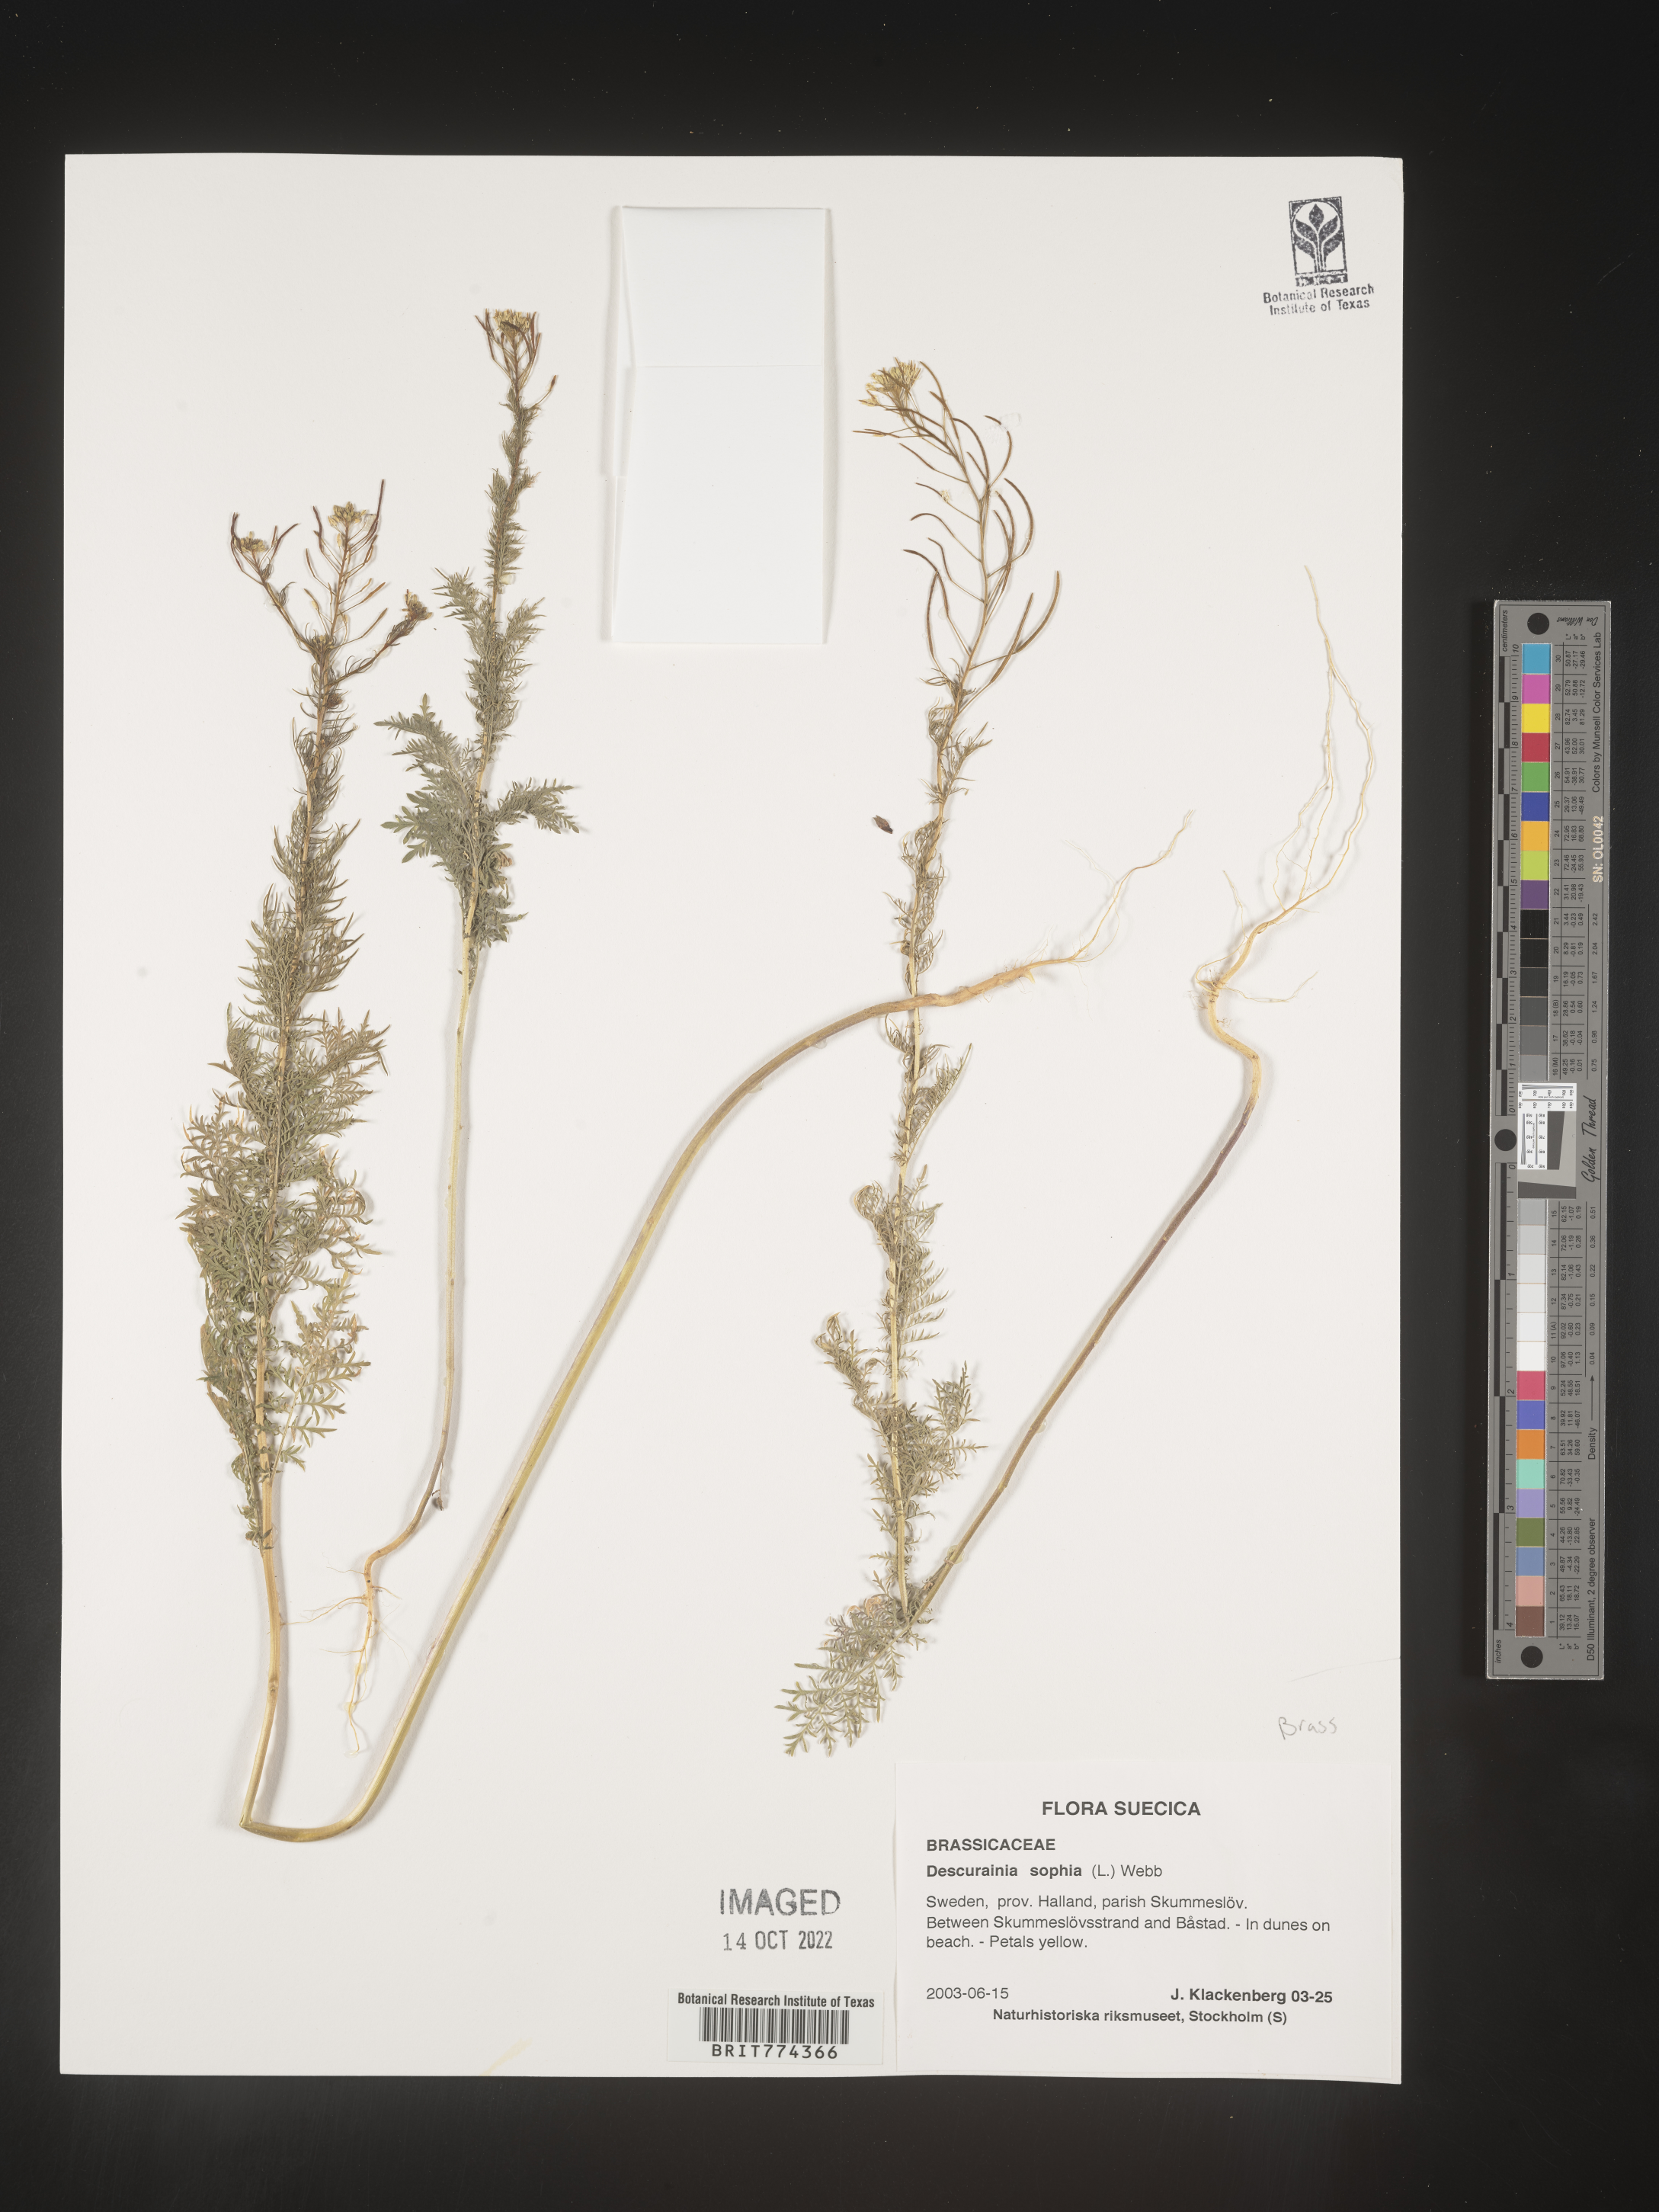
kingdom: Plantae
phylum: Tracheophyta
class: Magnoliopsida
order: Brassicales
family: Brassicaceae
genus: Descurainia
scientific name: Descurainia
